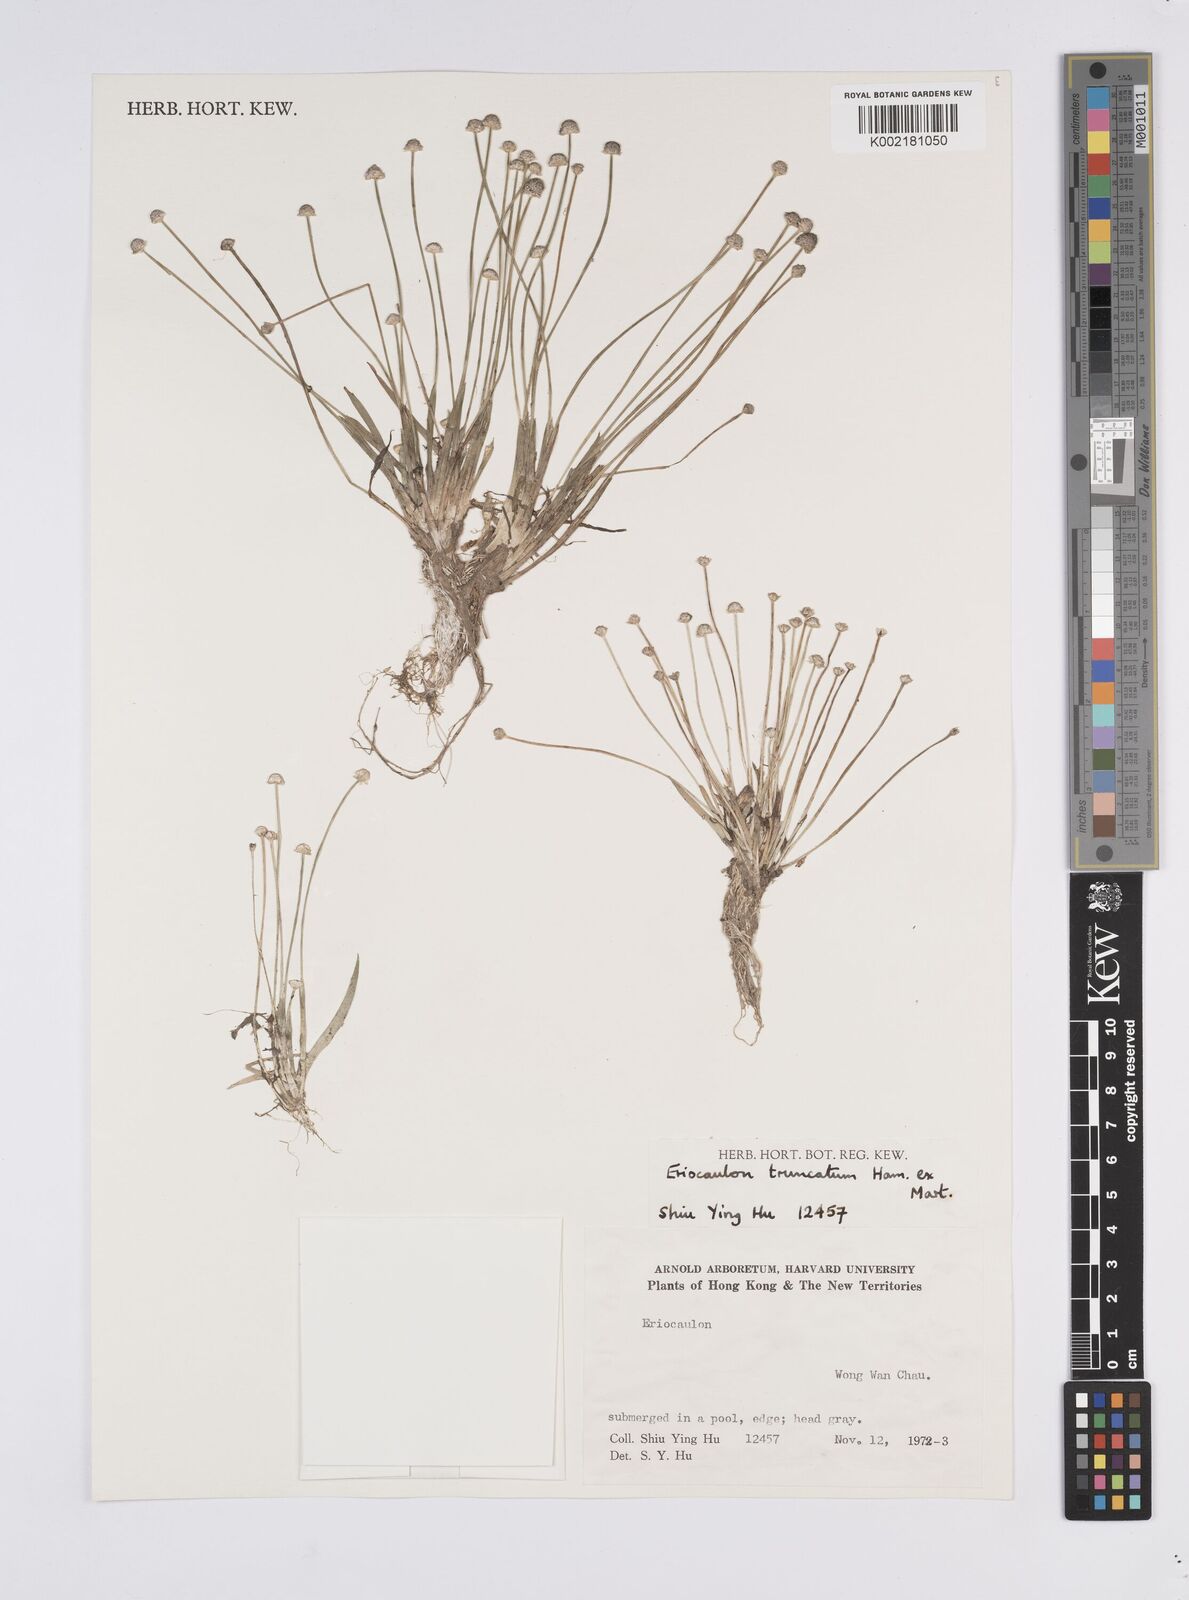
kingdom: Plantae
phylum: Tracheophyta
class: Liliopsida
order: Poales
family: Eriocaulaceae
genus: Eriocaulon
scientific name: Eriocaulon truncatum
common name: Short pipe-wort
